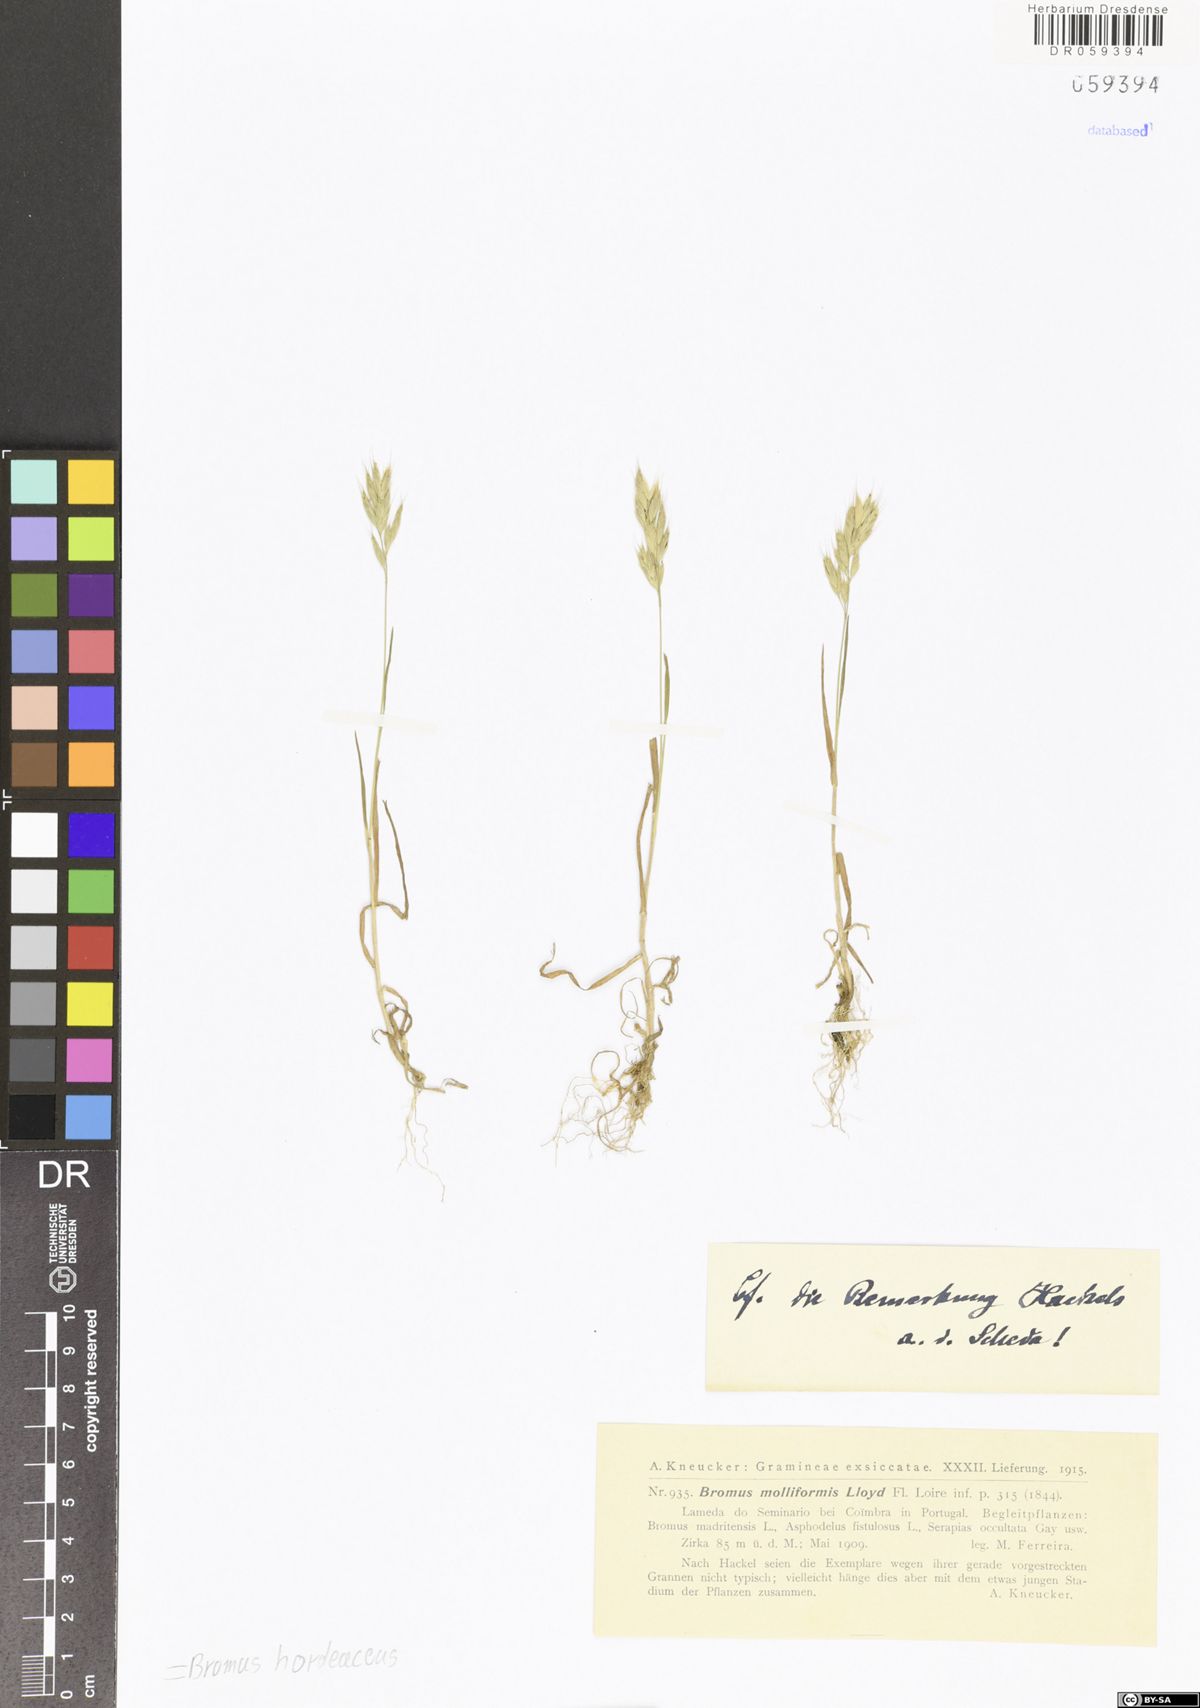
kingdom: Plantae
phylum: Tracheophyta
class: Liliopsida
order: Poales
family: Poaceae
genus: Bromus
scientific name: Bromus hordeaceus
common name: Soft brome
